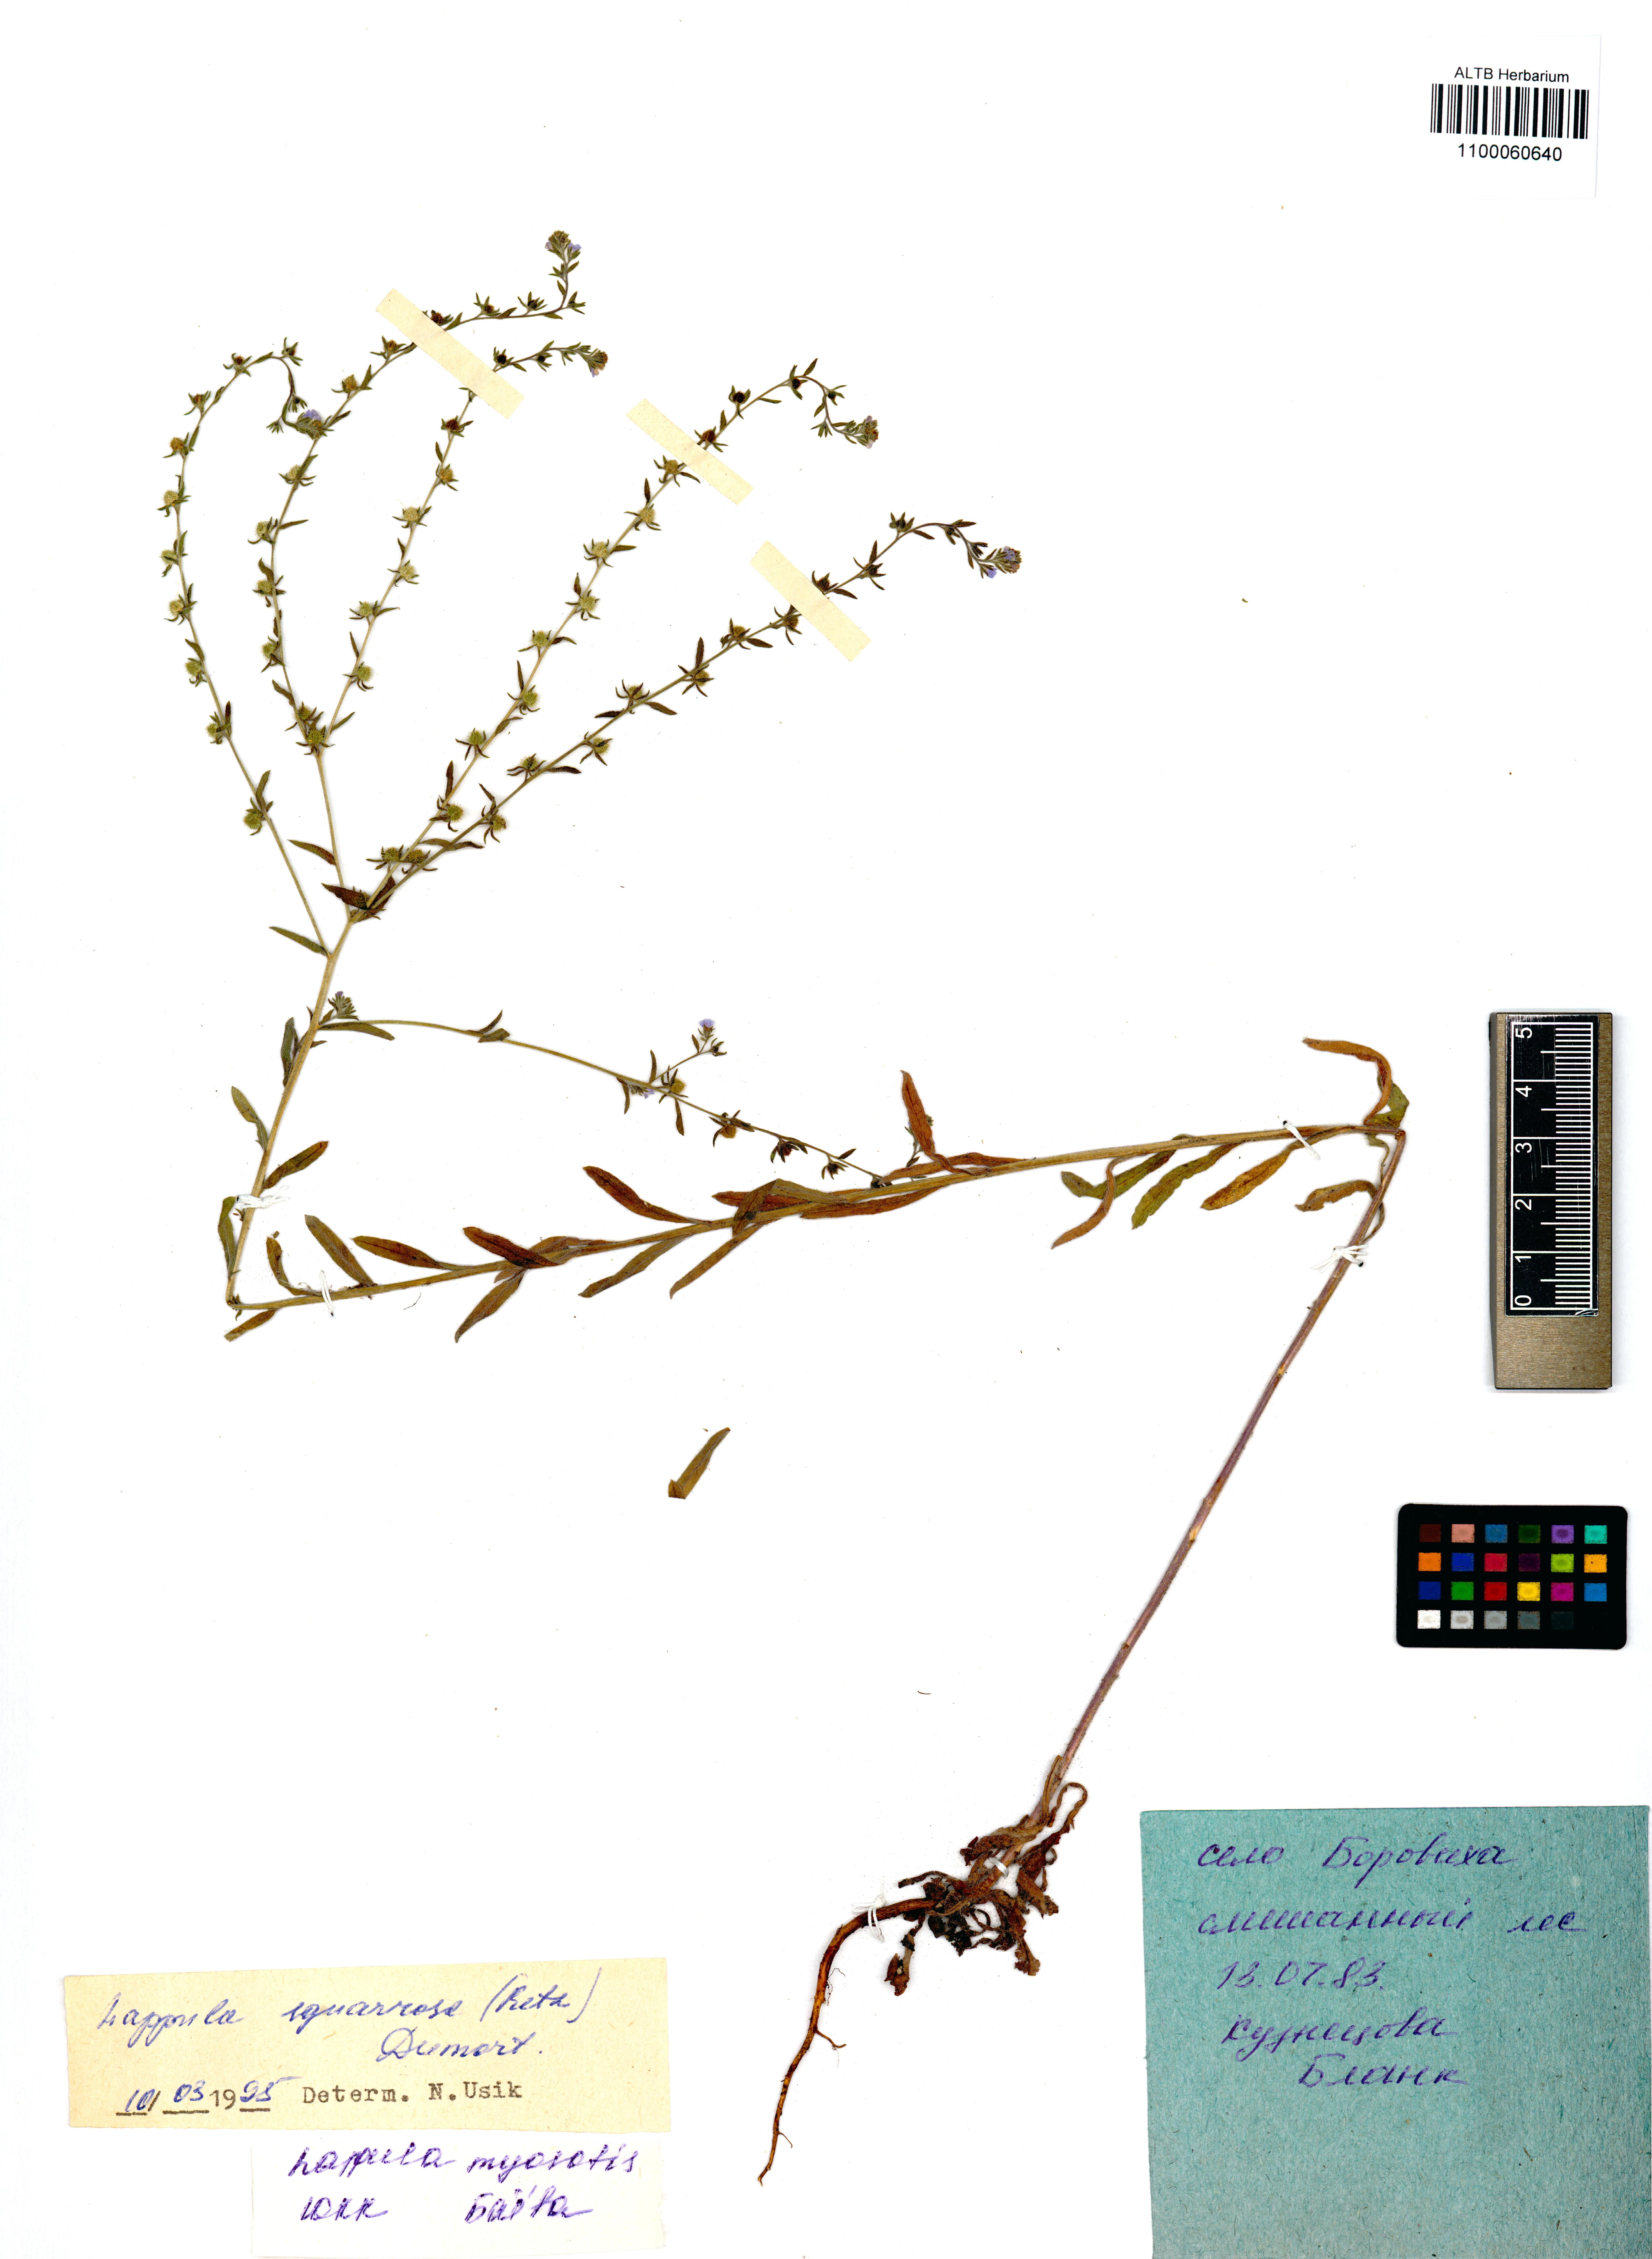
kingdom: Plantae
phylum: Tracheophyta
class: Magnoliopsida
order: Boraginales
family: Boraginaceae
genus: Lappula
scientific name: Lappula squarrosa
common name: European stickseed
